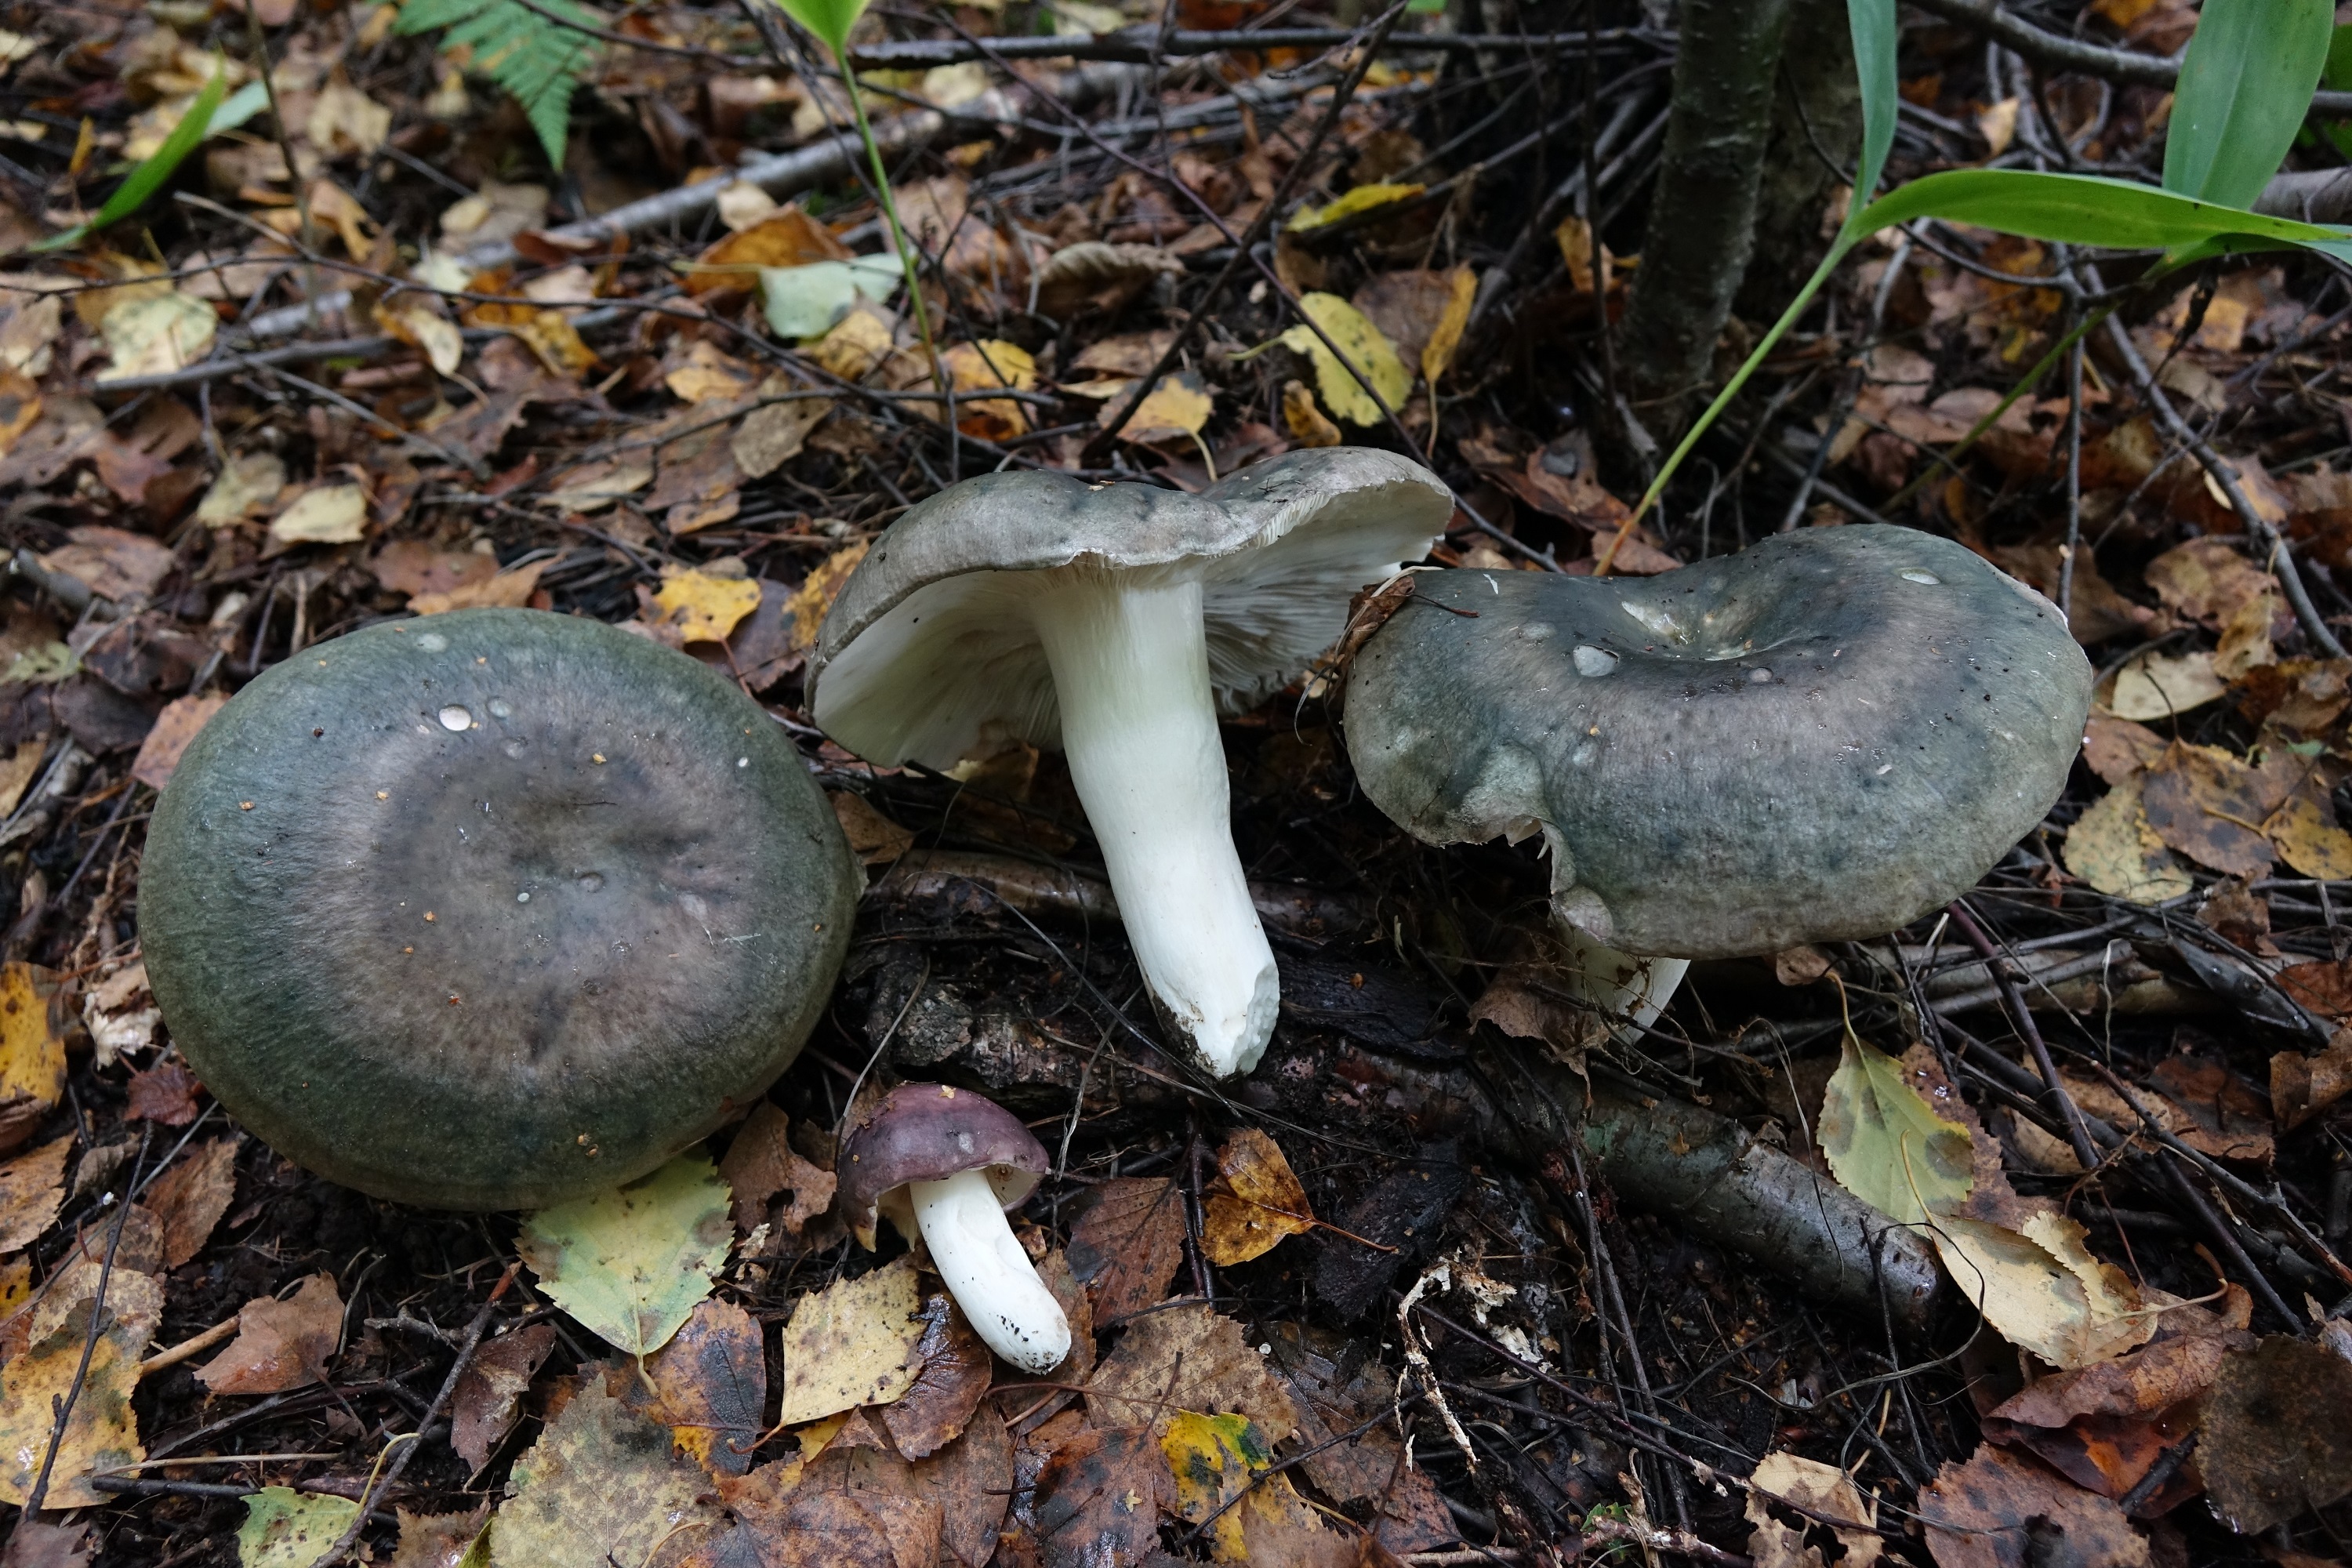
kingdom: Fungi
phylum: Basidiomycota
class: Agaricomycetes
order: Russulales
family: Russulaceae
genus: Russula
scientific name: Russula cyanoxantha
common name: Charcoal burner
